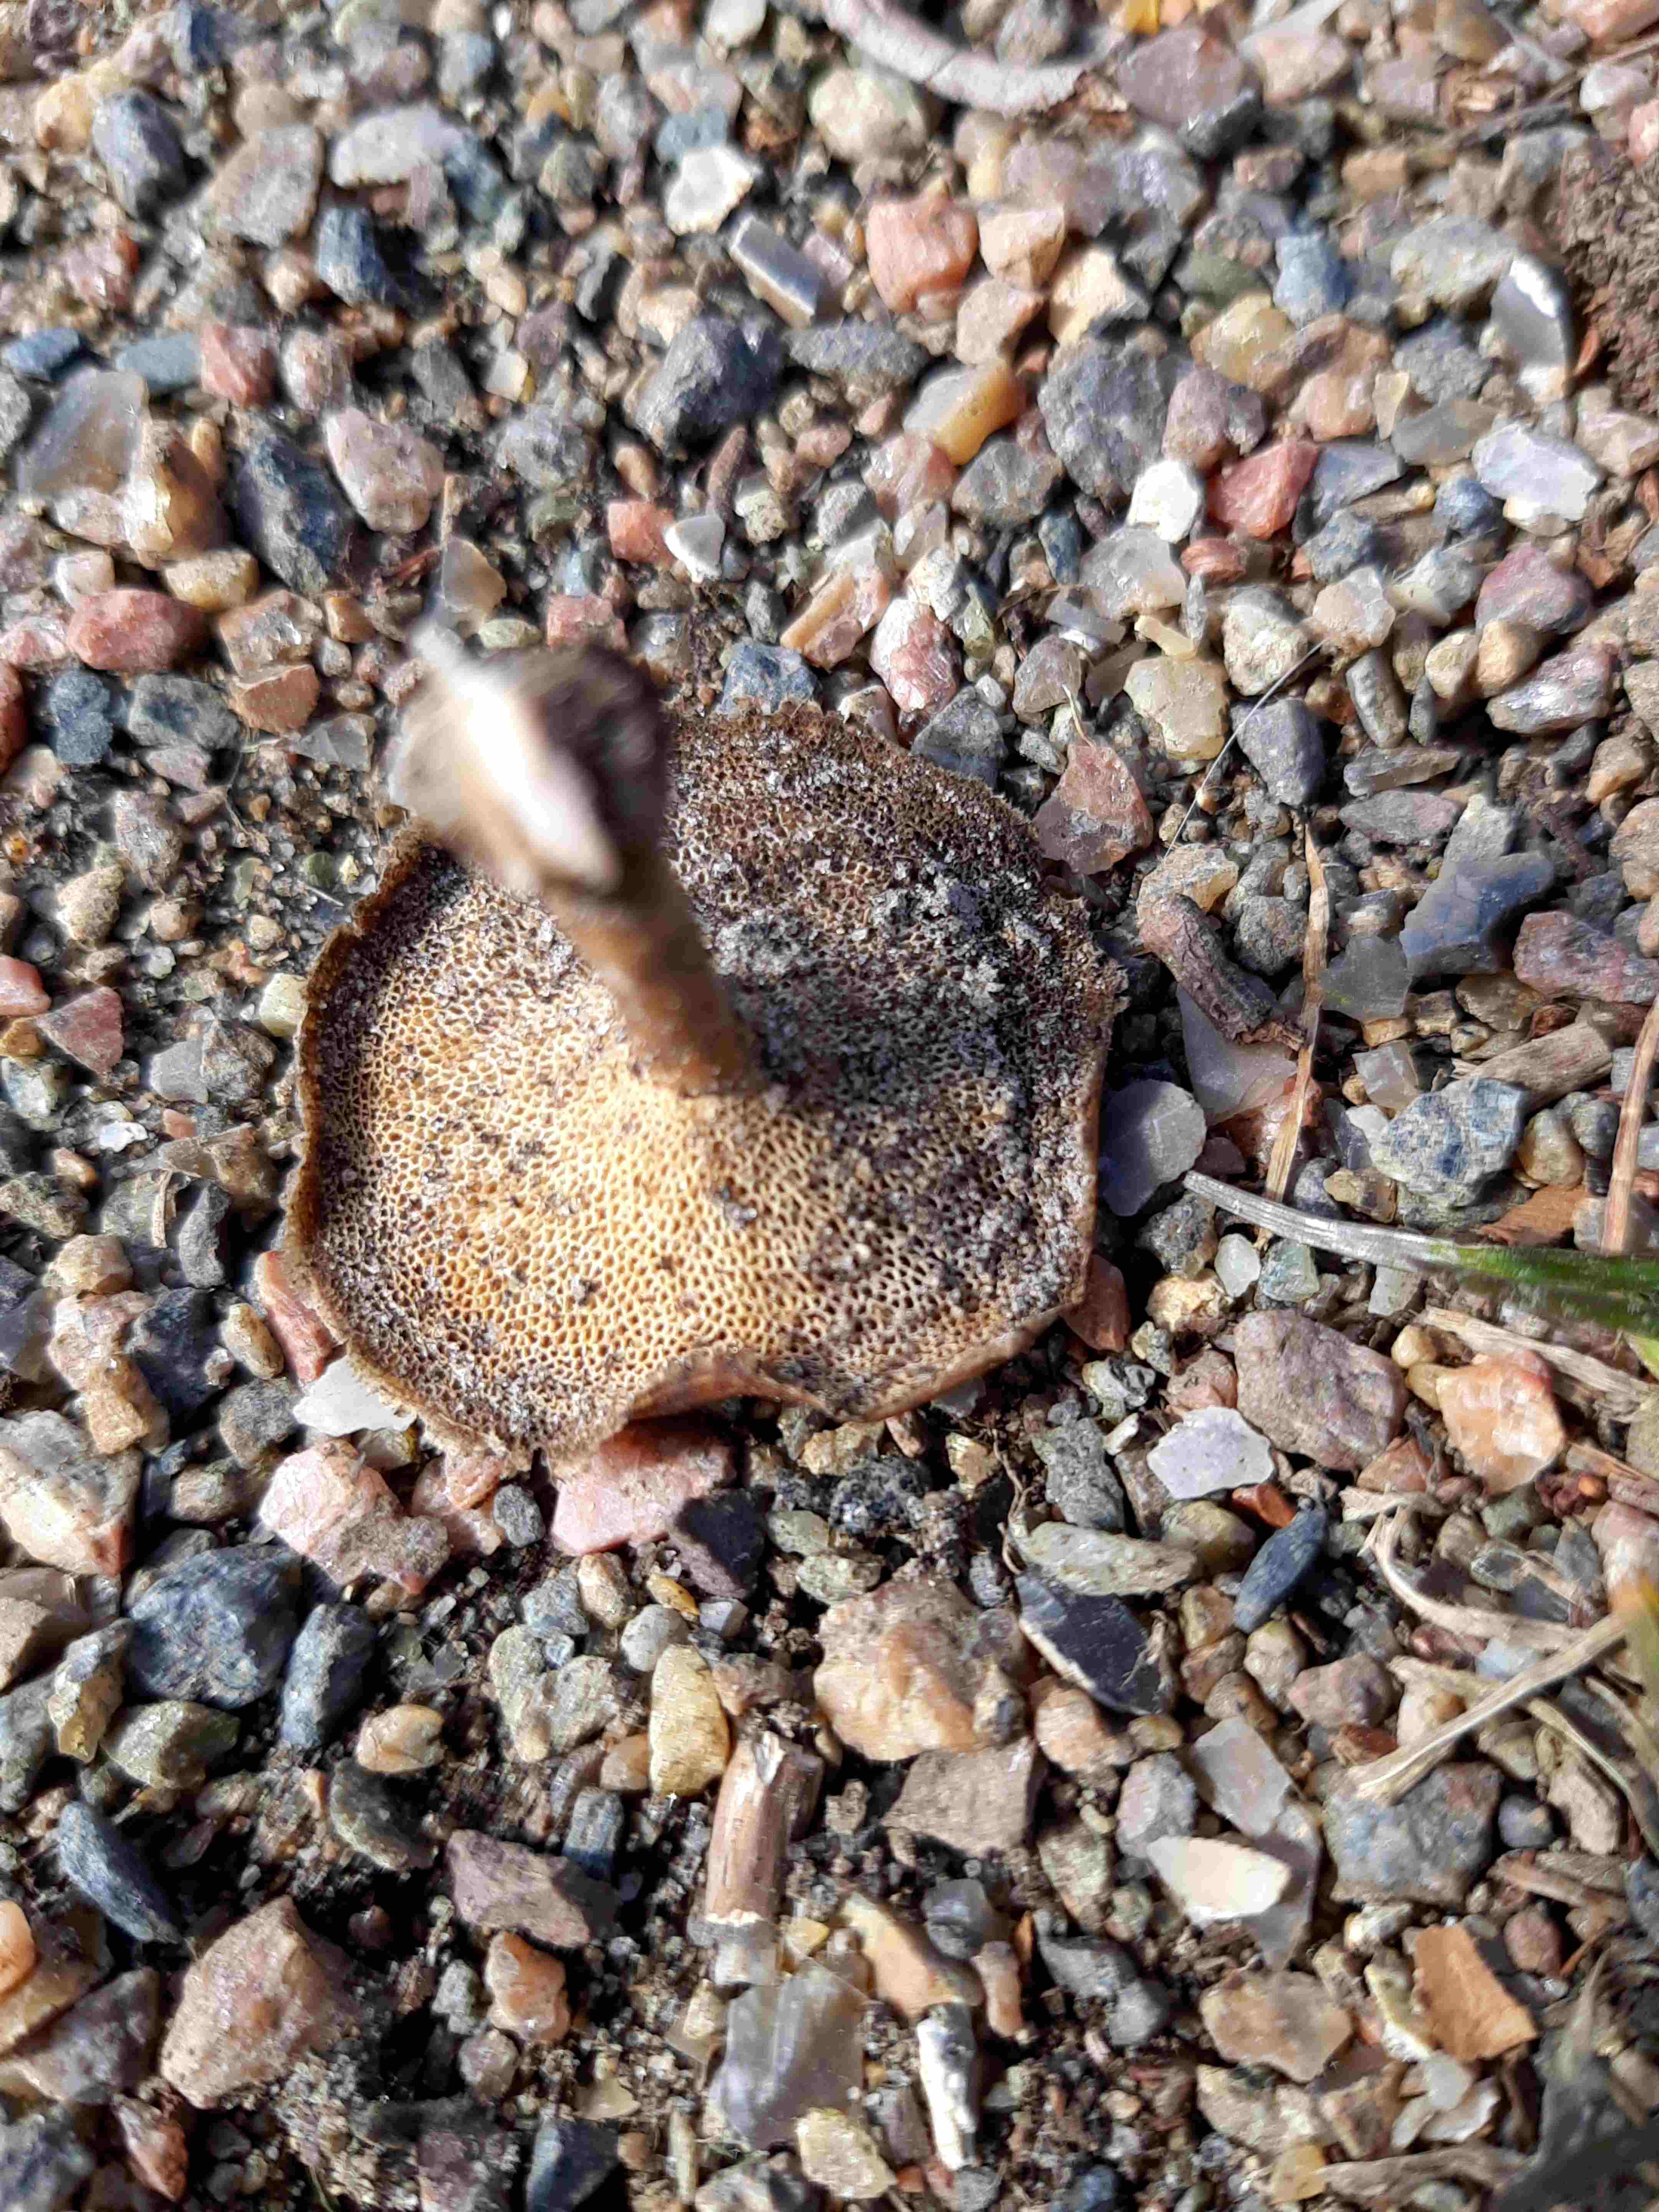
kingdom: Fungi
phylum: Basidiomycota
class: Agaricomycetes
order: Polyporales
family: Polyporaceae
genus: Lentinus
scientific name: Lentinus brumalis
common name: vinter-stilkporesvamp
